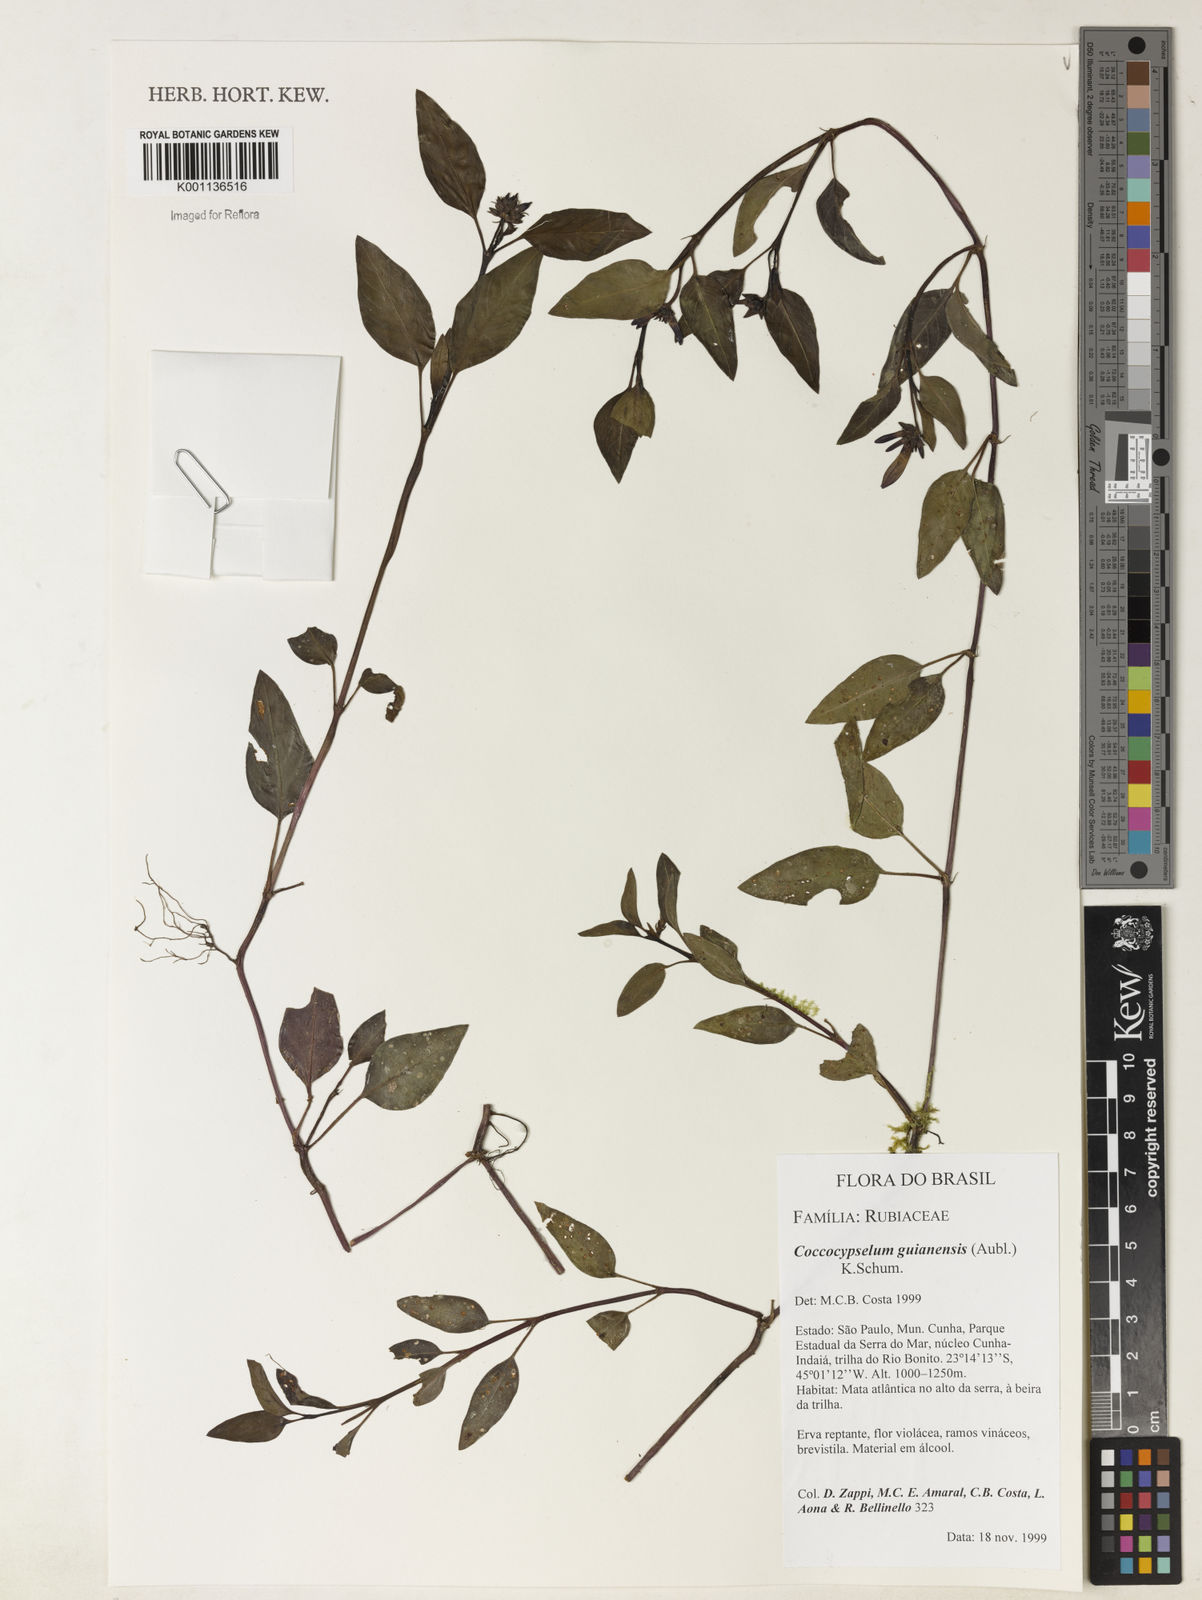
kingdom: Plantae
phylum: Tracheophyta
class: Magnoliopsida
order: Gentianales
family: Rubiaceae
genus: Coccocypselum
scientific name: Coccocypselum guianense
